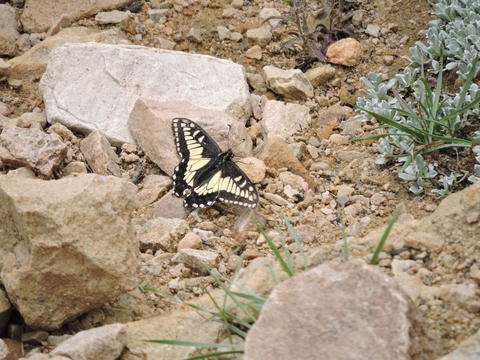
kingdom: Animalia
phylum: Arthropoda
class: Insecta
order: Lepidoptera
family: Papilionidae
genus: Papilio
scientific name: Papilio zelicaon
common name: Anise Swallowtail
